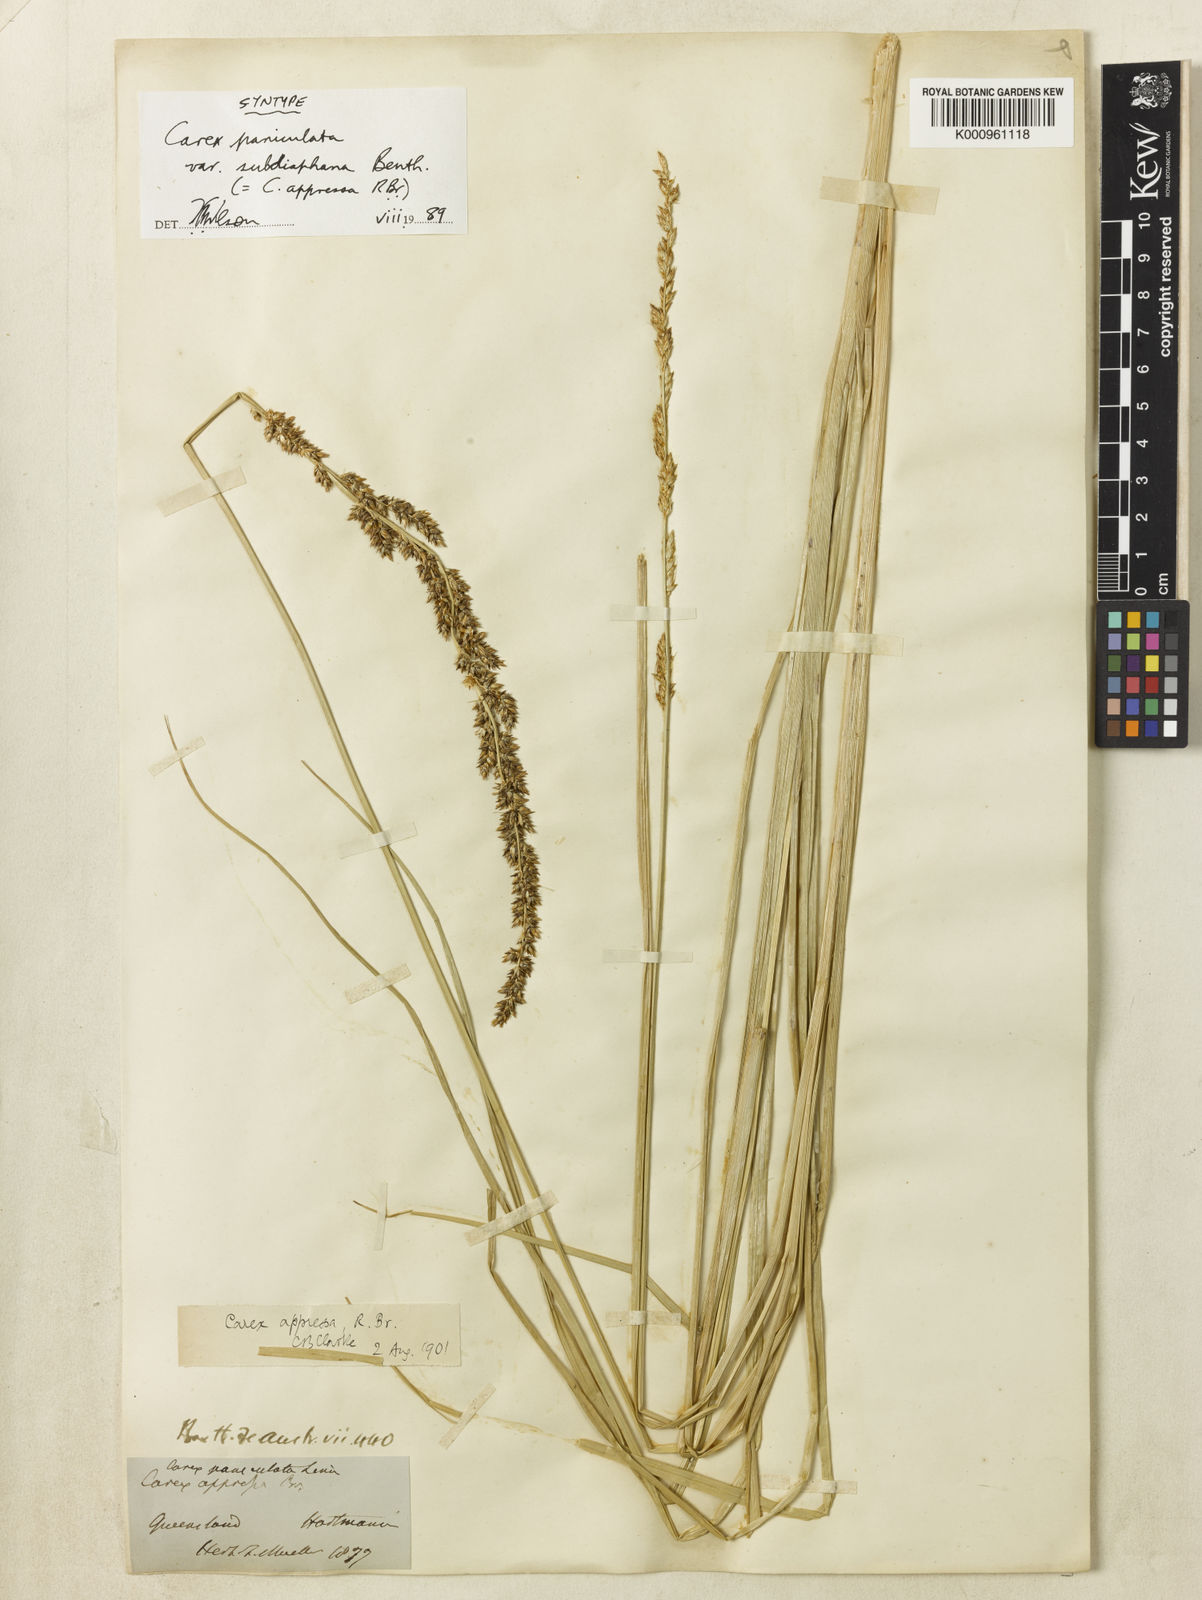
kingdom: Plantae
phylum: Tracheophyta
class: Liliopsida
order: Poales
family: Cyperaceae
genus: Carex
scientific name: Carex appressa
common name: Tussock sedge
